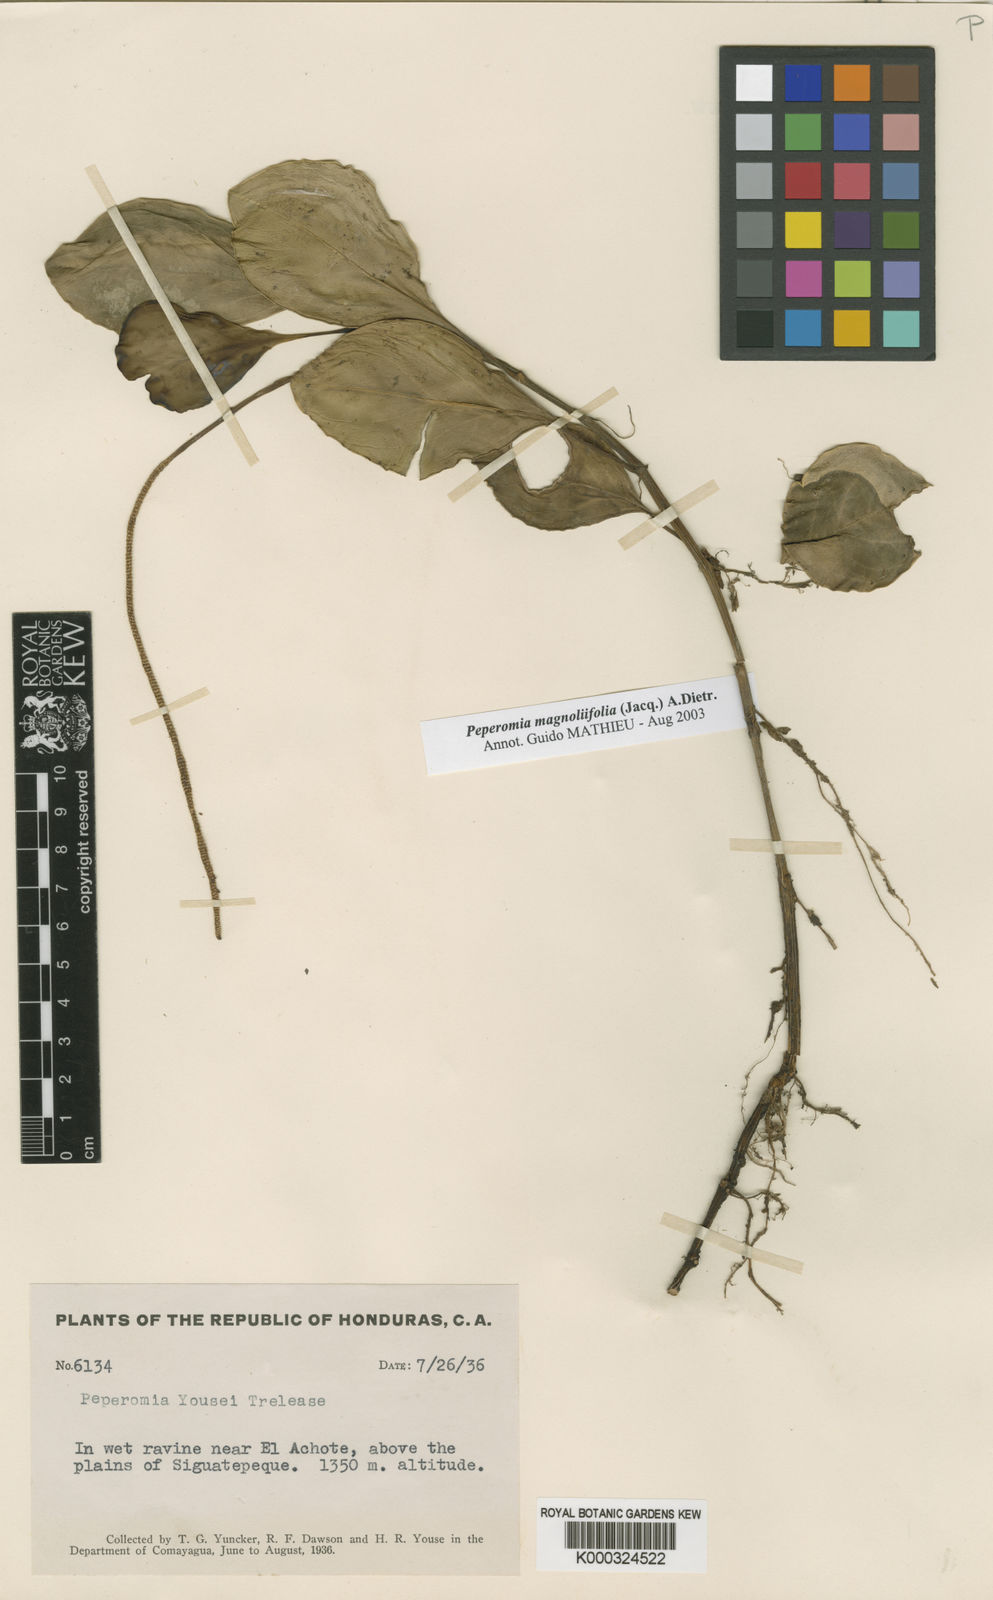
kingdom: Plantae
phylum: Tracheophyta
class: Magnoliopsida
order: Piperales
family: Piperaceae
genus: Peperomia
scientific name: Peperomia magnoliifolia
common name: Spoonleaf peperomia
